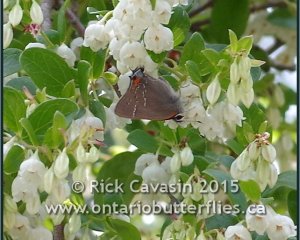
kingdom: Animalia
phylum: Arthropoda
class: Insecta
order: Lepidoptera
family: Lycaenidae
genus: Fixsenia
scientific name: Fixsenia favonius
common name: Oak Hairstreak
